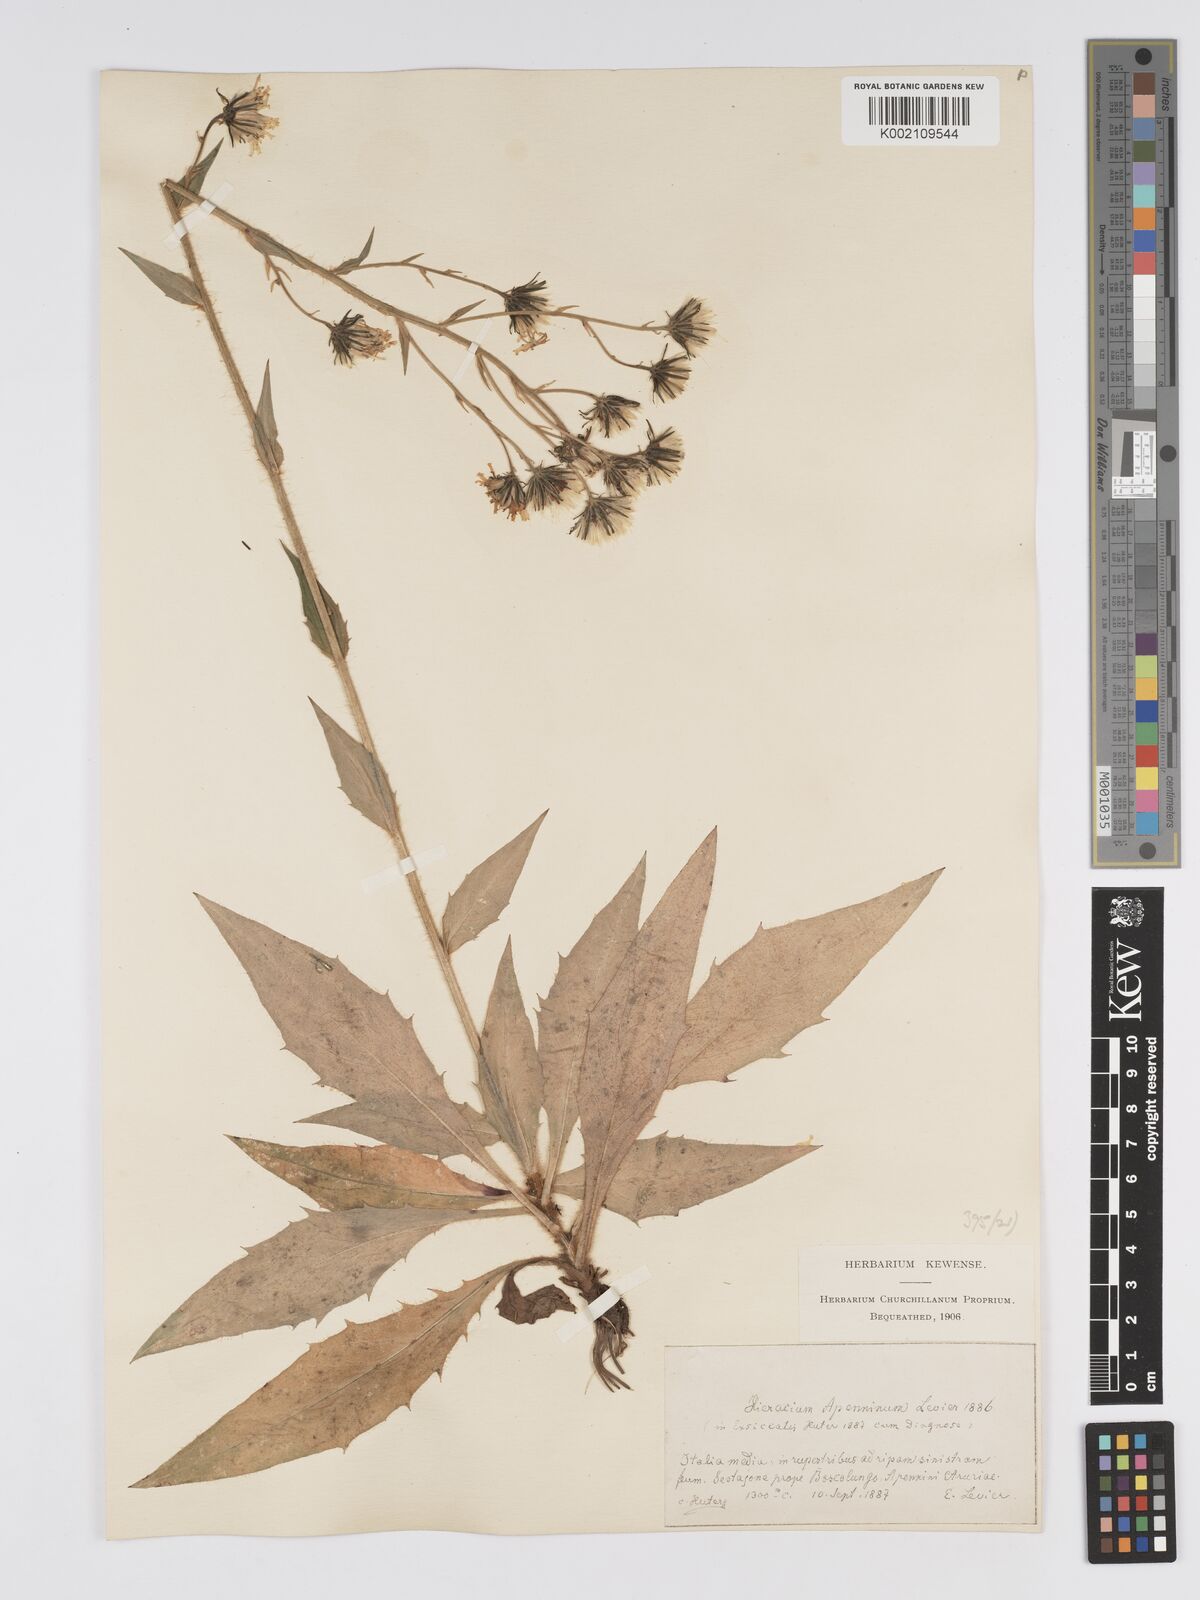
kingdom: Plantae
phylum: Tracheophyta
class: Magnoliopsida
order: Asterales
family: Asteraceae
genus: Hieracium
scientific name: Hieracium racemosum
